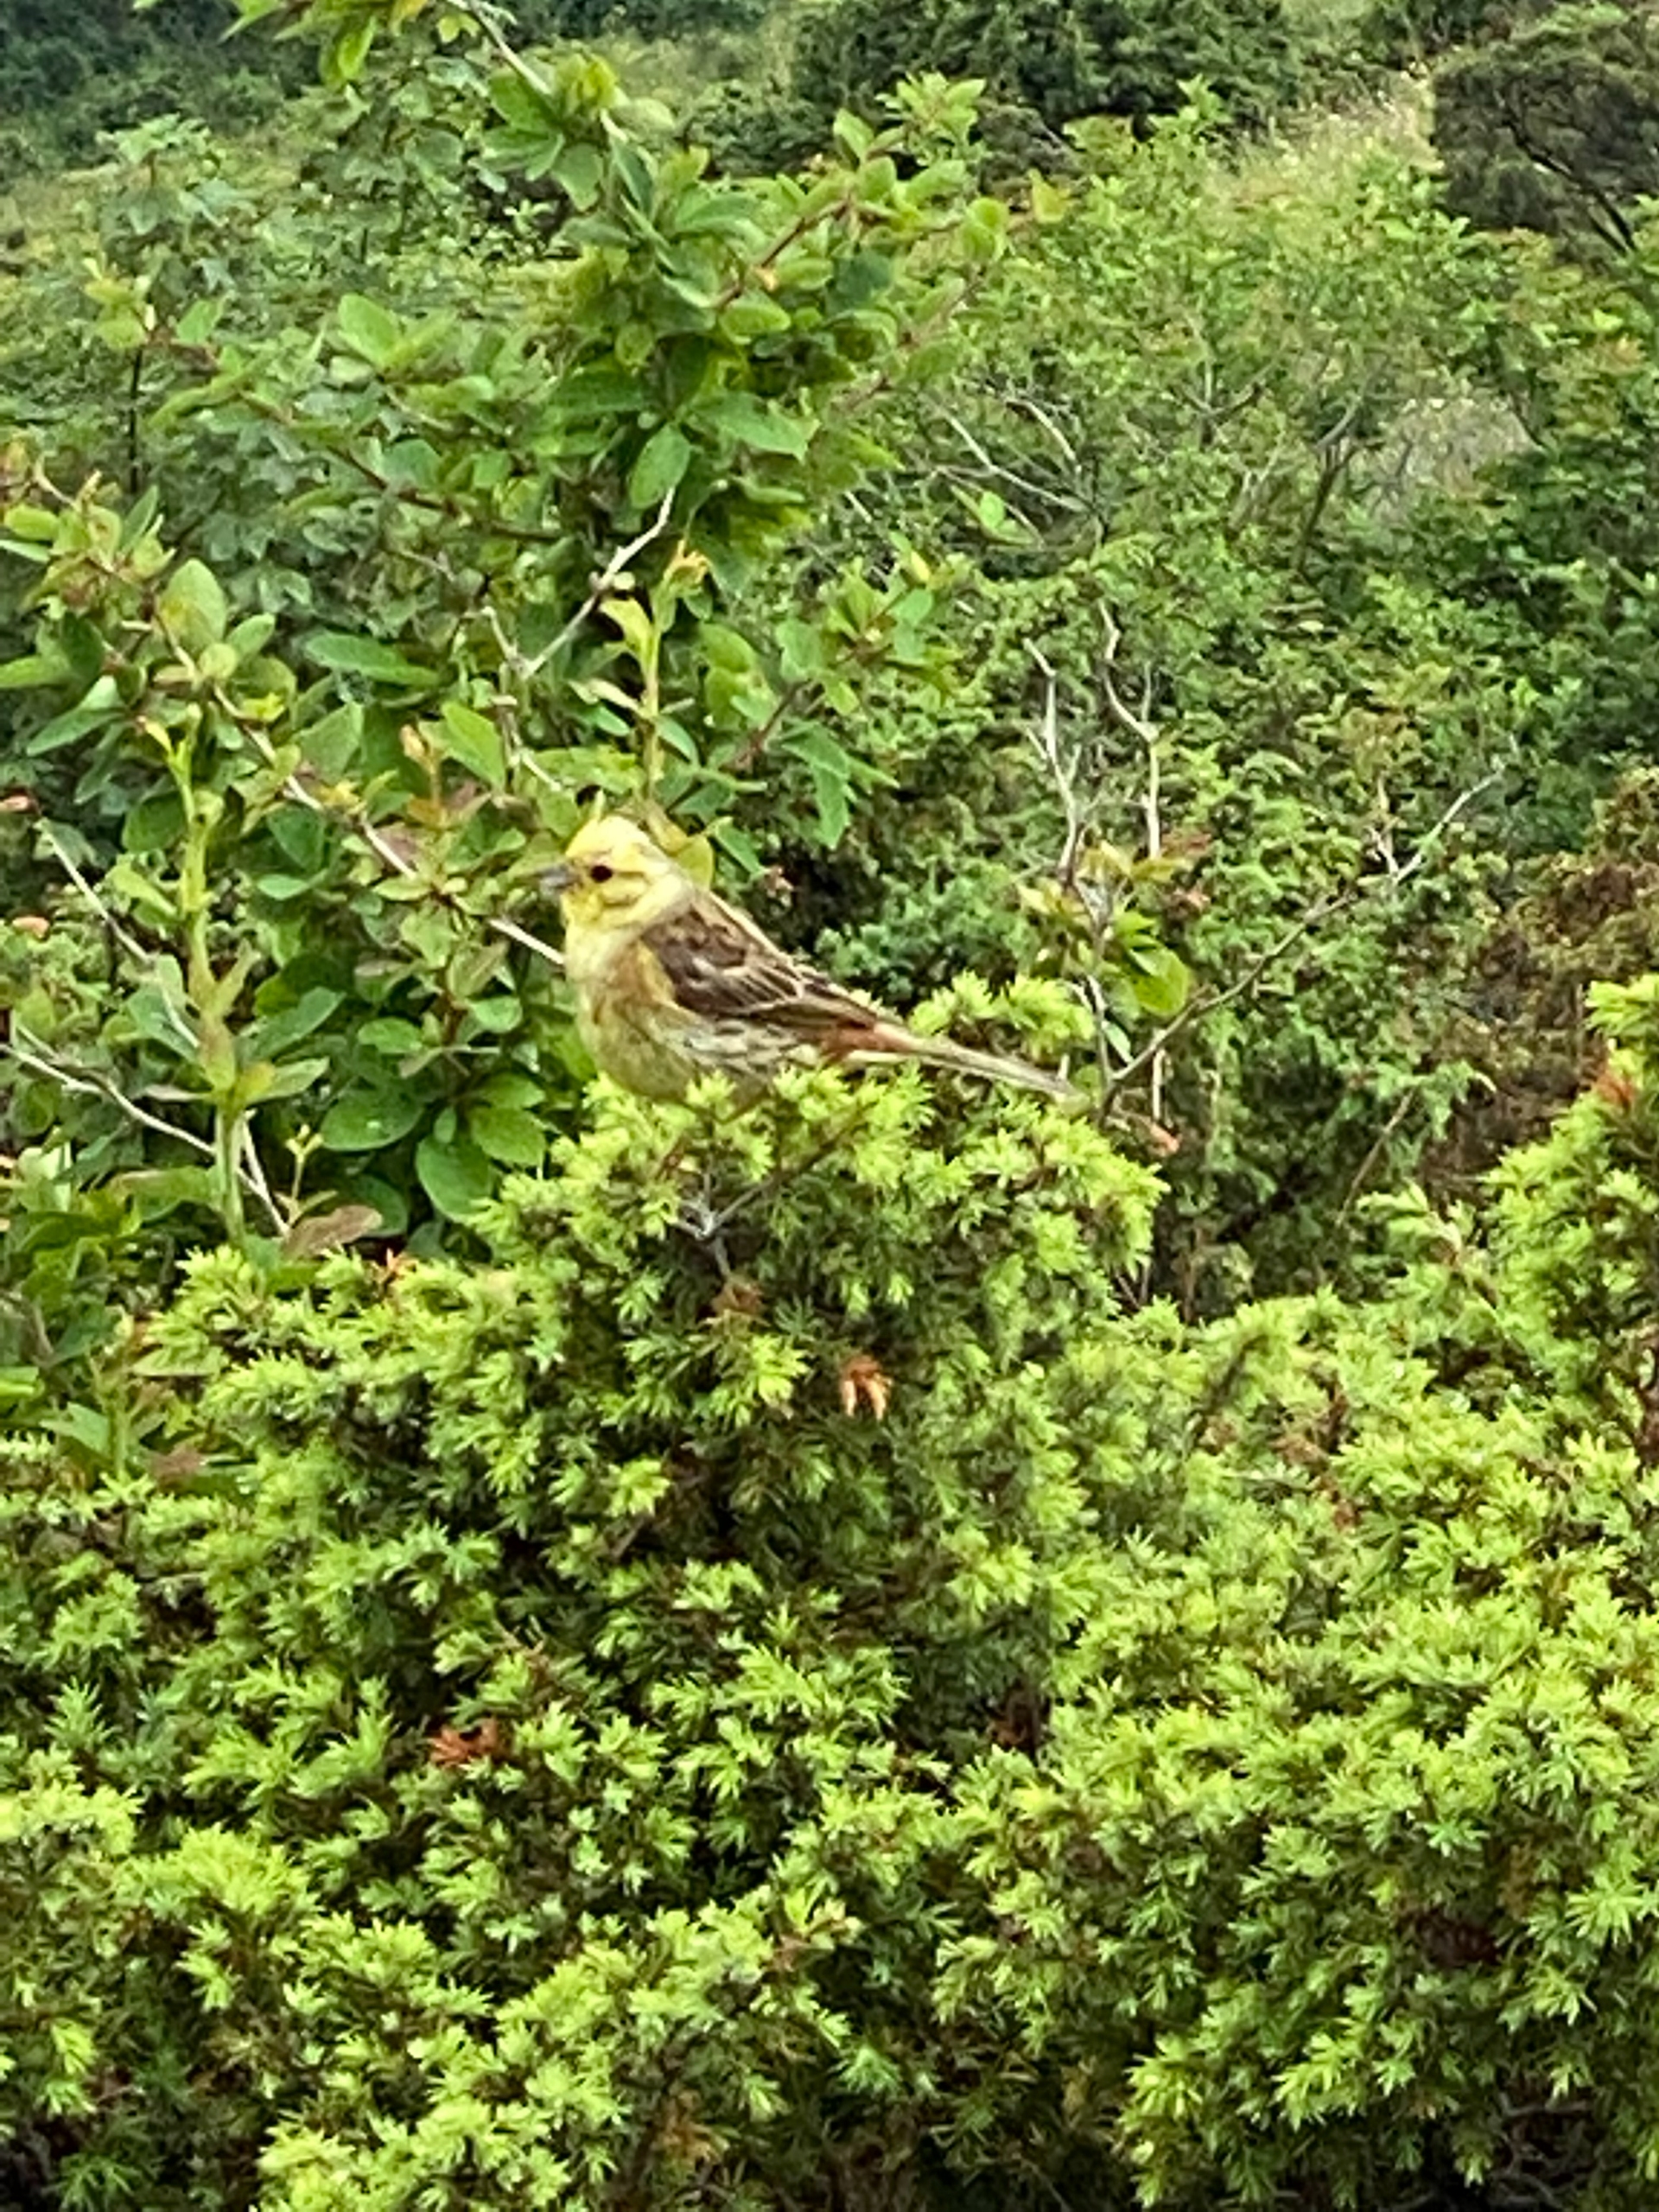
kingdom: Animalia
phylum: Chordata
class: Aves
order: Passeriformes
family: Emberizidae
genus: Emberiza
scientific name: Emberiza citrinella
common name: Gulspurv
